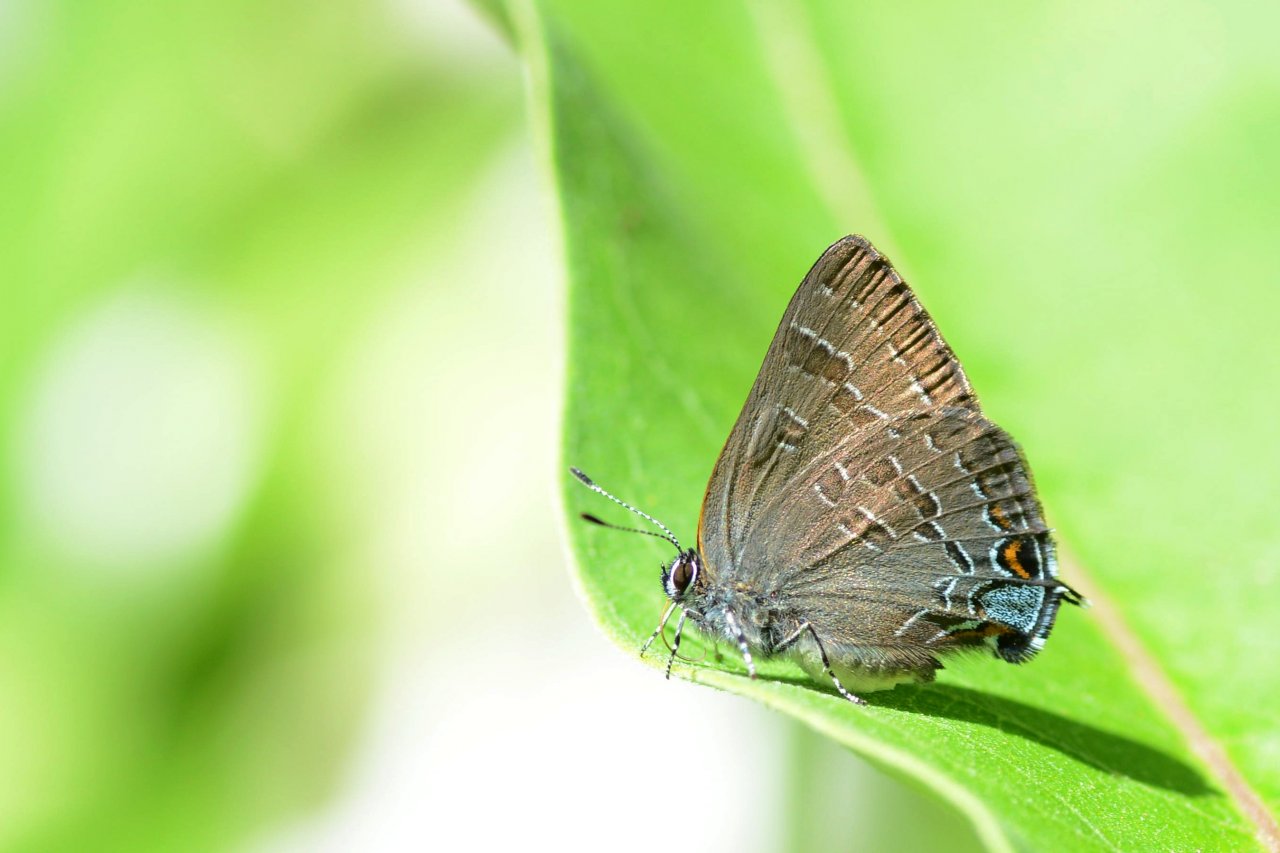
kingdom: Animalia
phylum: Arthropoda
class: Insecta
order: Lepidoptera
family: Lycaenidae
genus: Strymon
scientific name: Strymon caryaevorus
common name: Hickory Hairstreak
